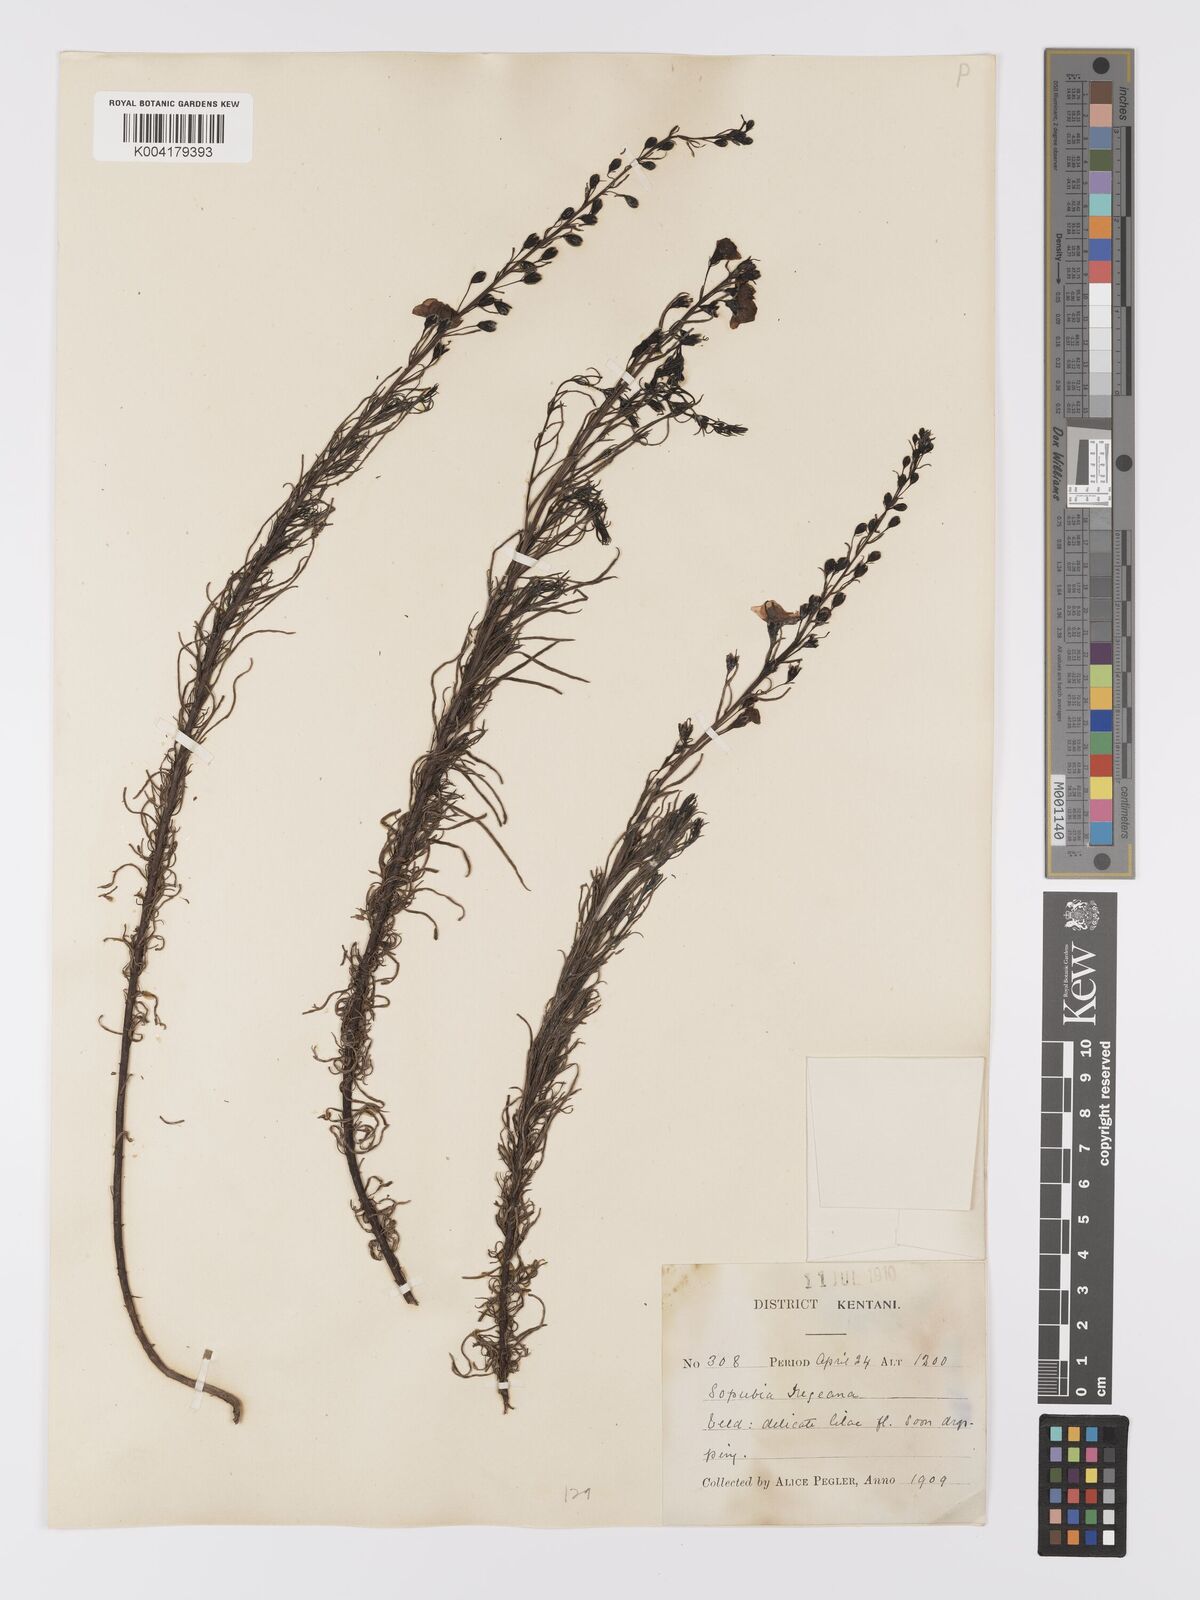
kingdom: Plantae
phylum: Tracheophyta
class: Magnoliopsida
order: Lamiales
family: Orobanchaceae
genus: Sopubia
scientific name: Sopubia simplex
